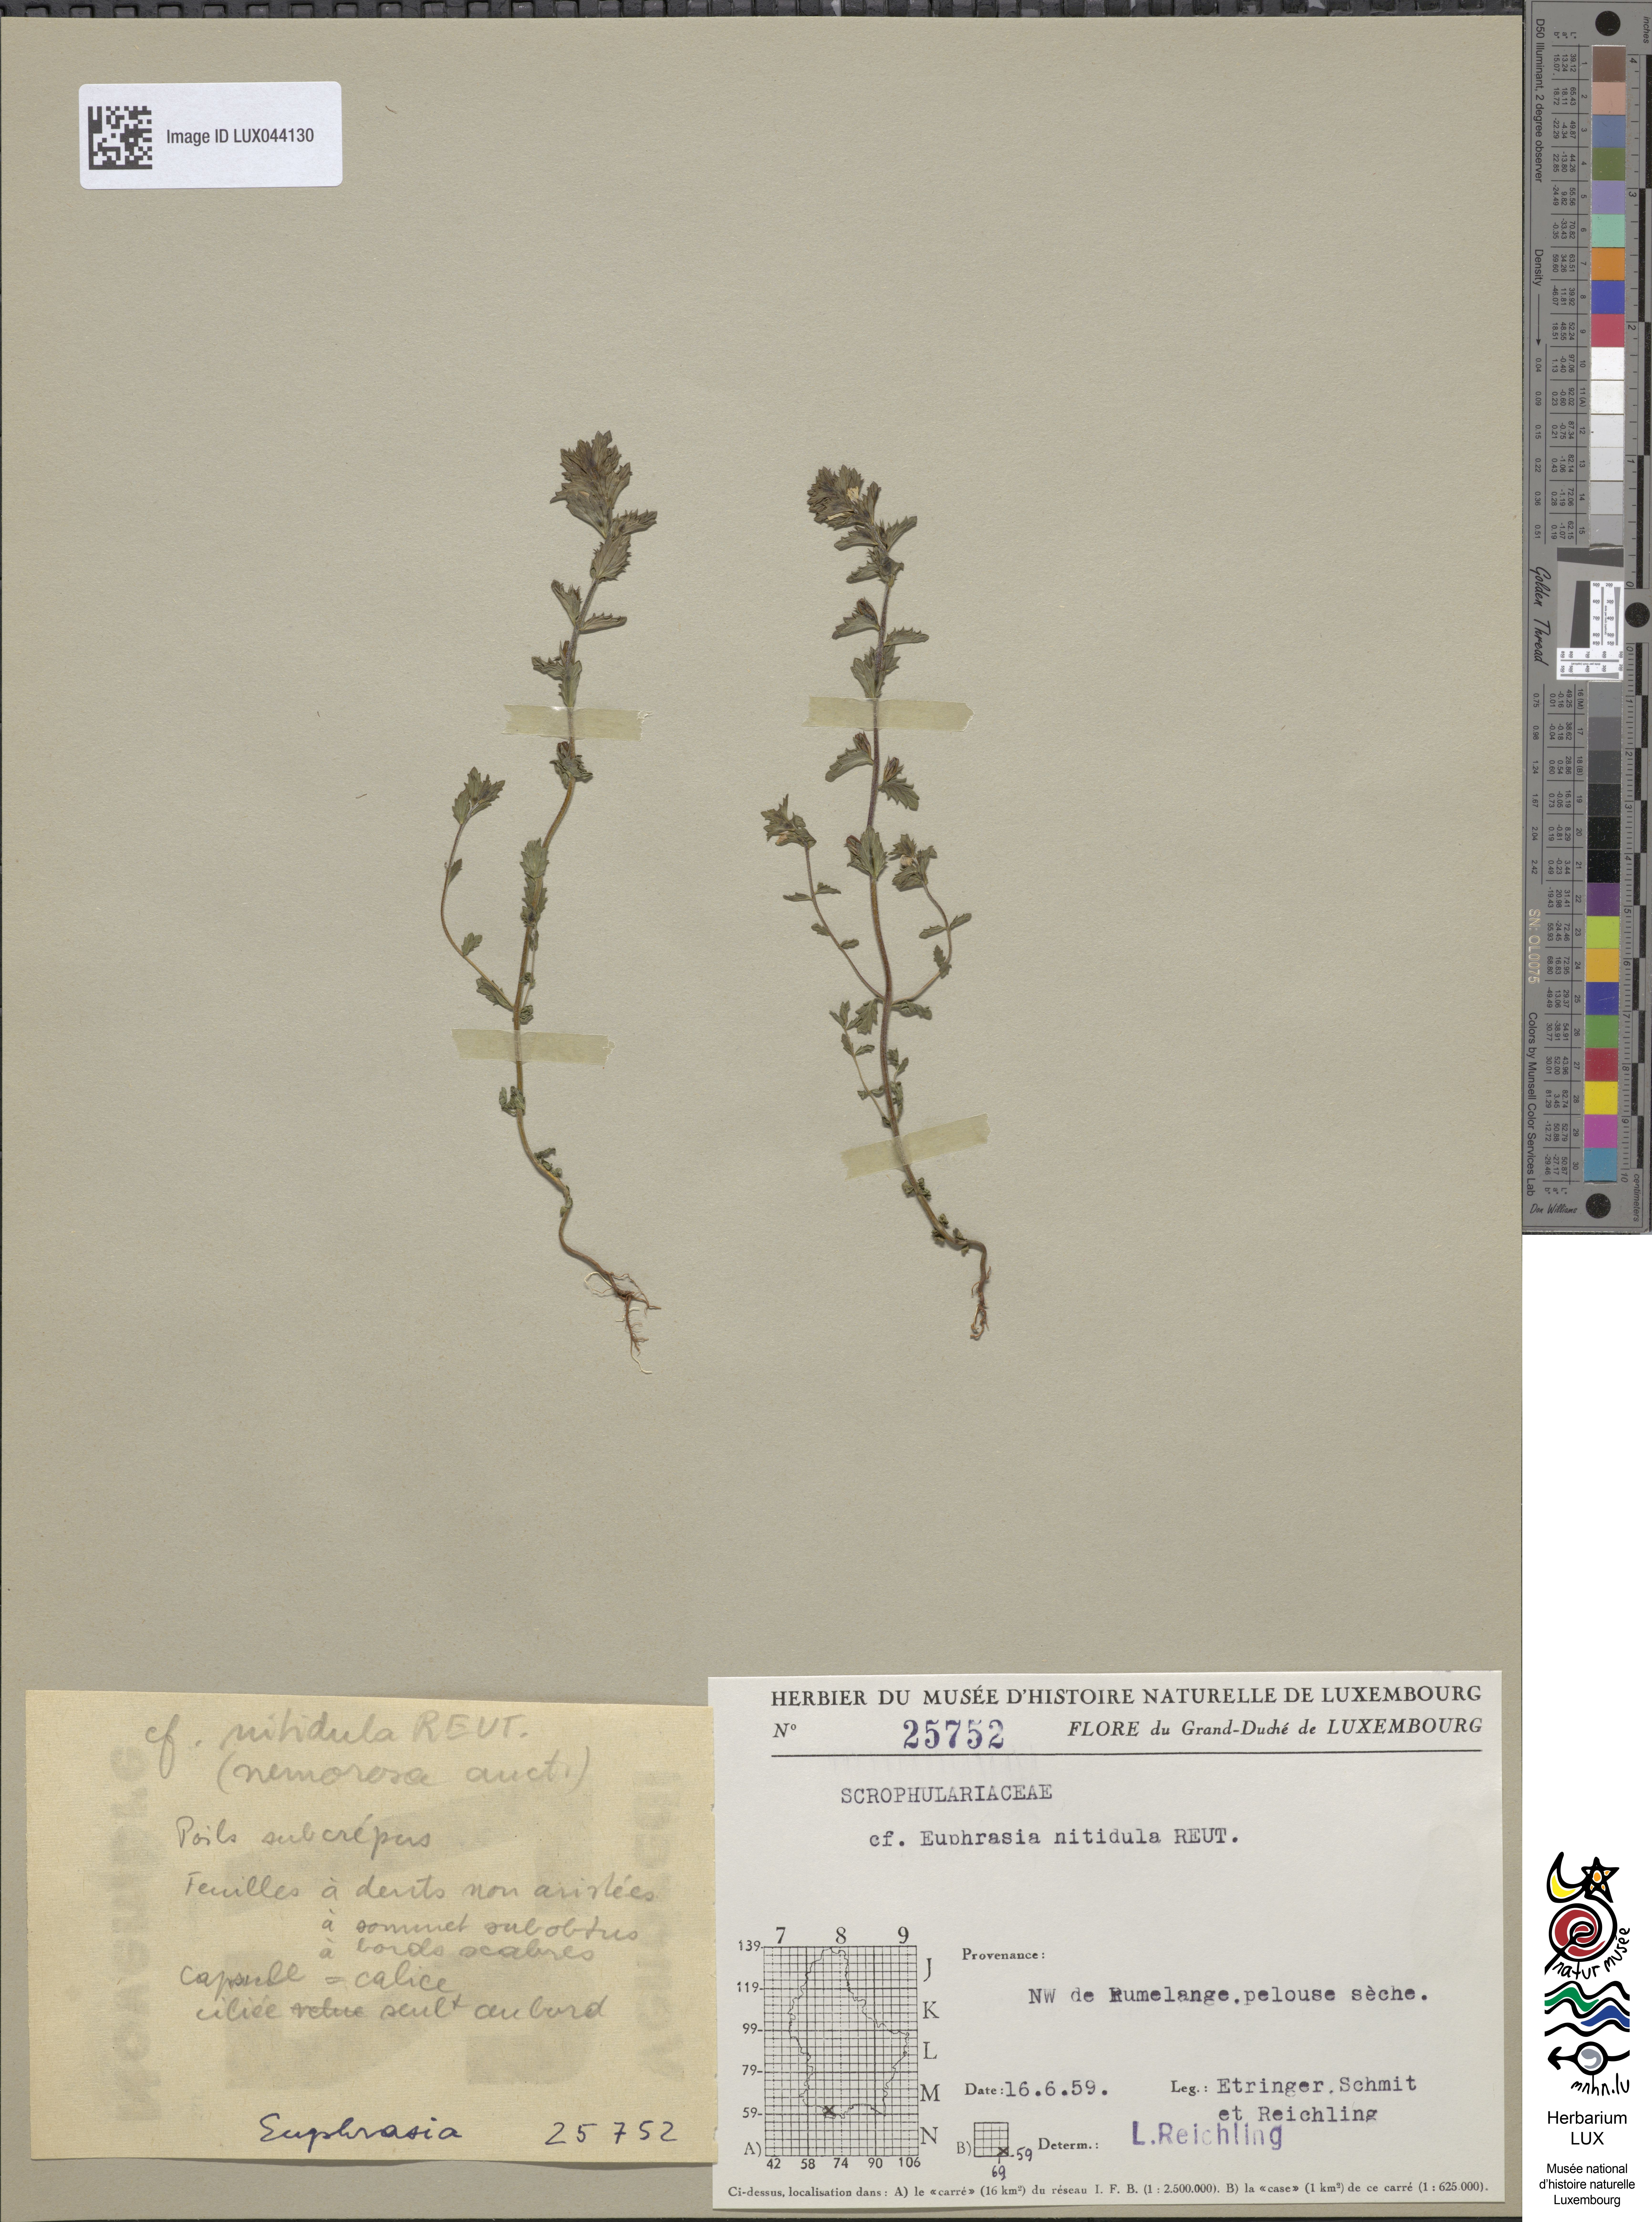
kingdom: Plantae
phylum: Tracheophyta
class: Magnoliopsida
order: Lamiales
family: Orobanchaceae
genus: Euphrasia
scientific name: Euphrasia nemorosa
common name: Common eyebright
